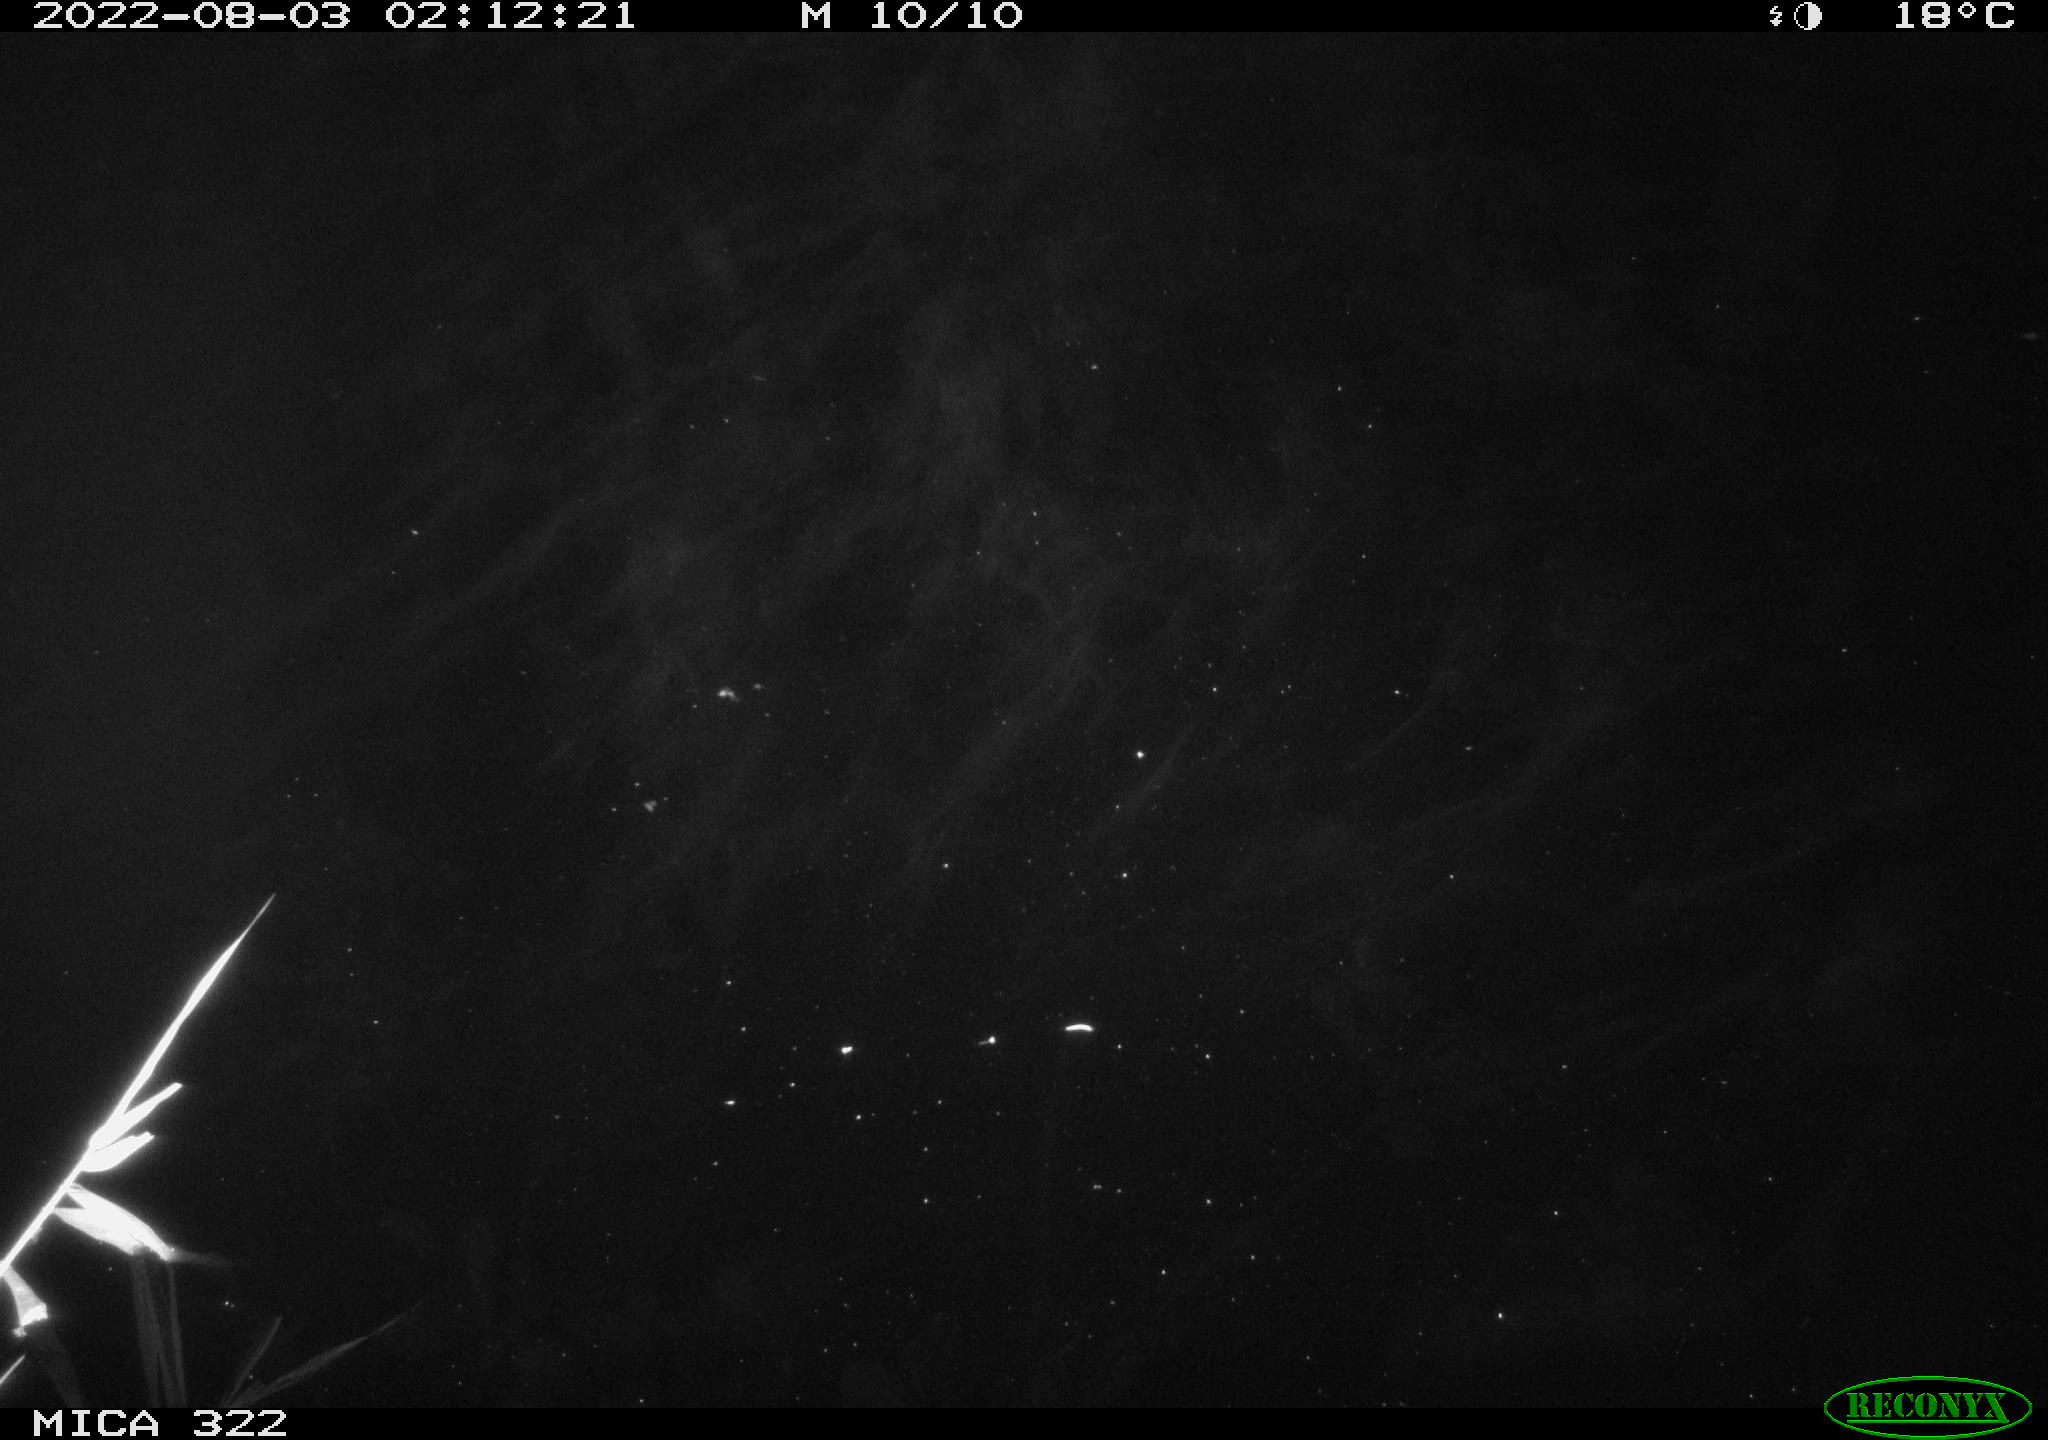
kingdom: Animalia
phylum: Chordata
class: Aves
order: Gruiformes
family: Rallidae
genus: Gallinula
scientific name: Gallinula chloropus
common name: Common moorhen
